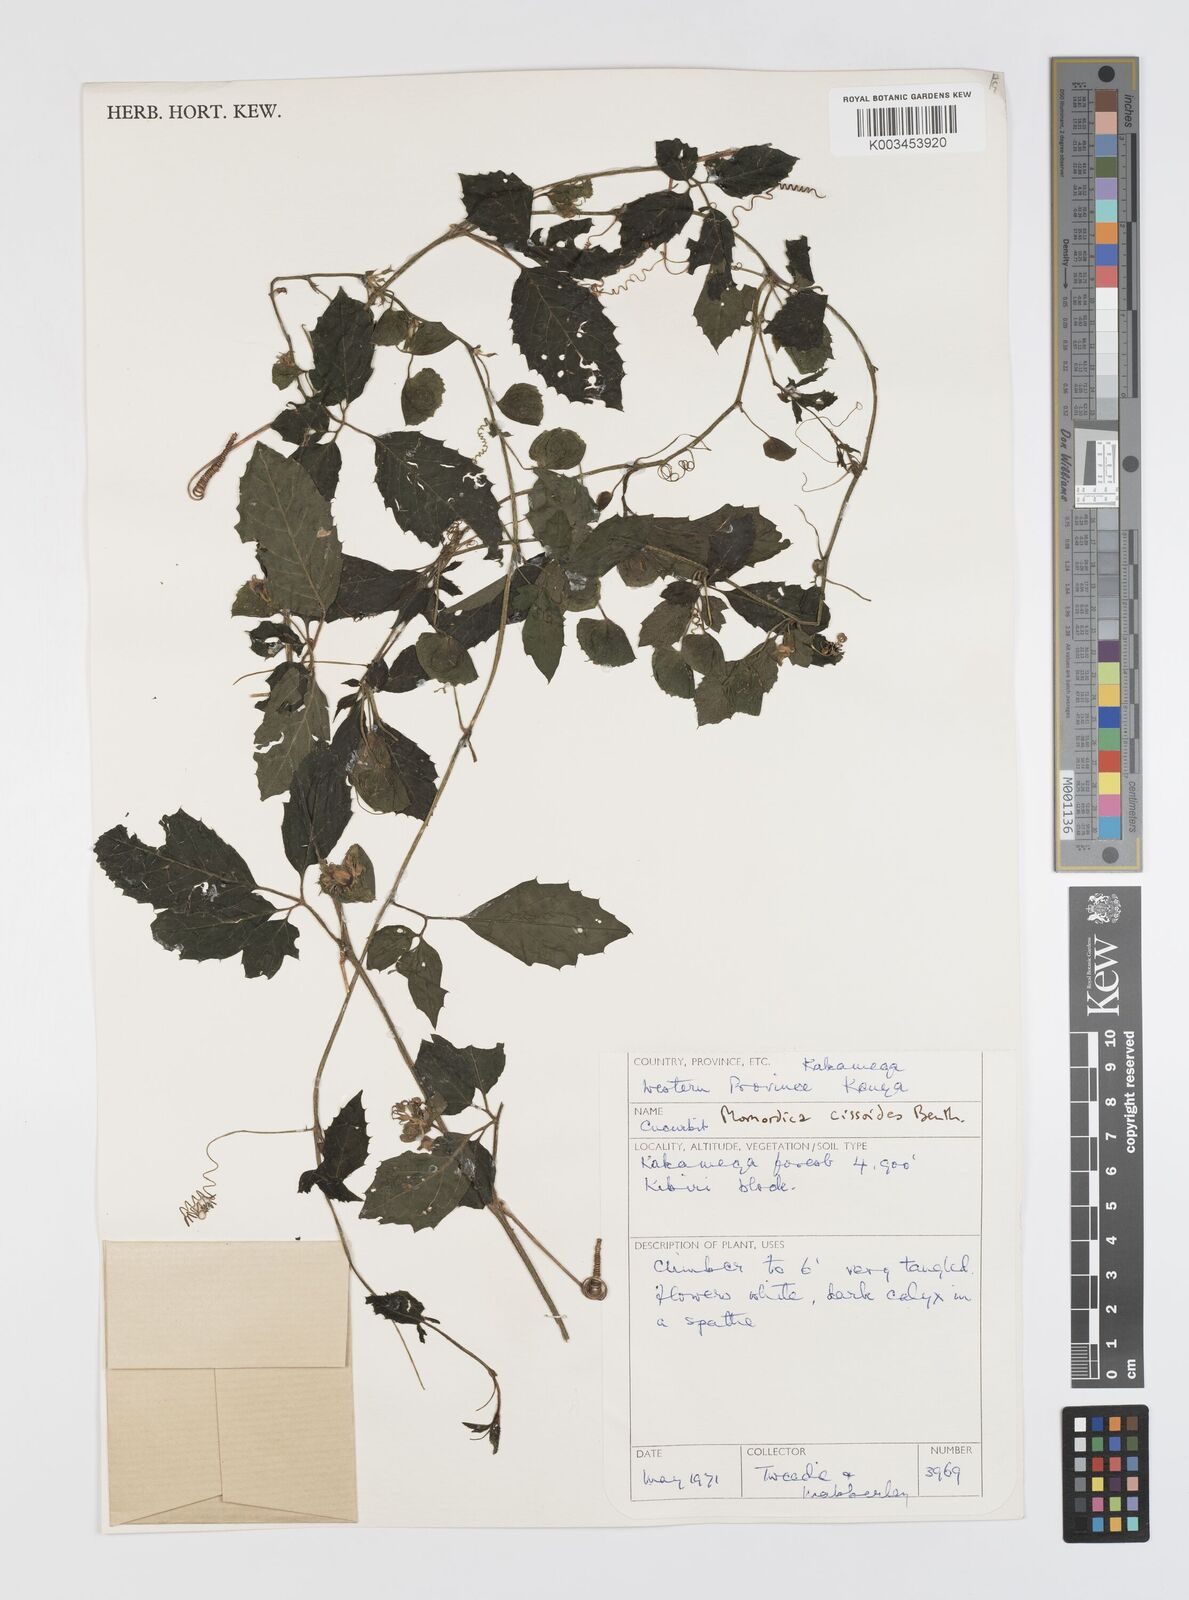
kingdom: Plantae
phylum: Tracheophyta
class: Magnoliopsida
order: Cucurbitales
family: Cucurbitaceae
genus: Momordica
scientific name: Momordica cissoides
